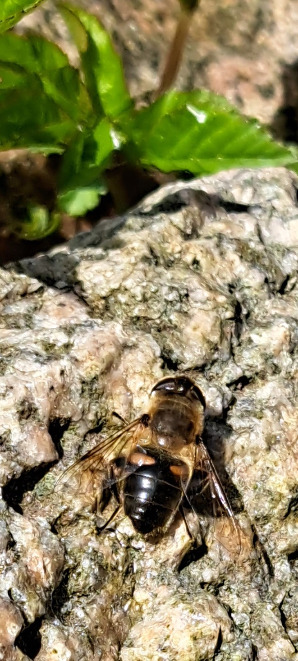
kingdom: Animalia
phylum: Arthropoda
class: Insecta
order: Diptera
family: Syrphidae
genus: Eristalis
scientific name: Eristalis tenax
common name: Droneflue
